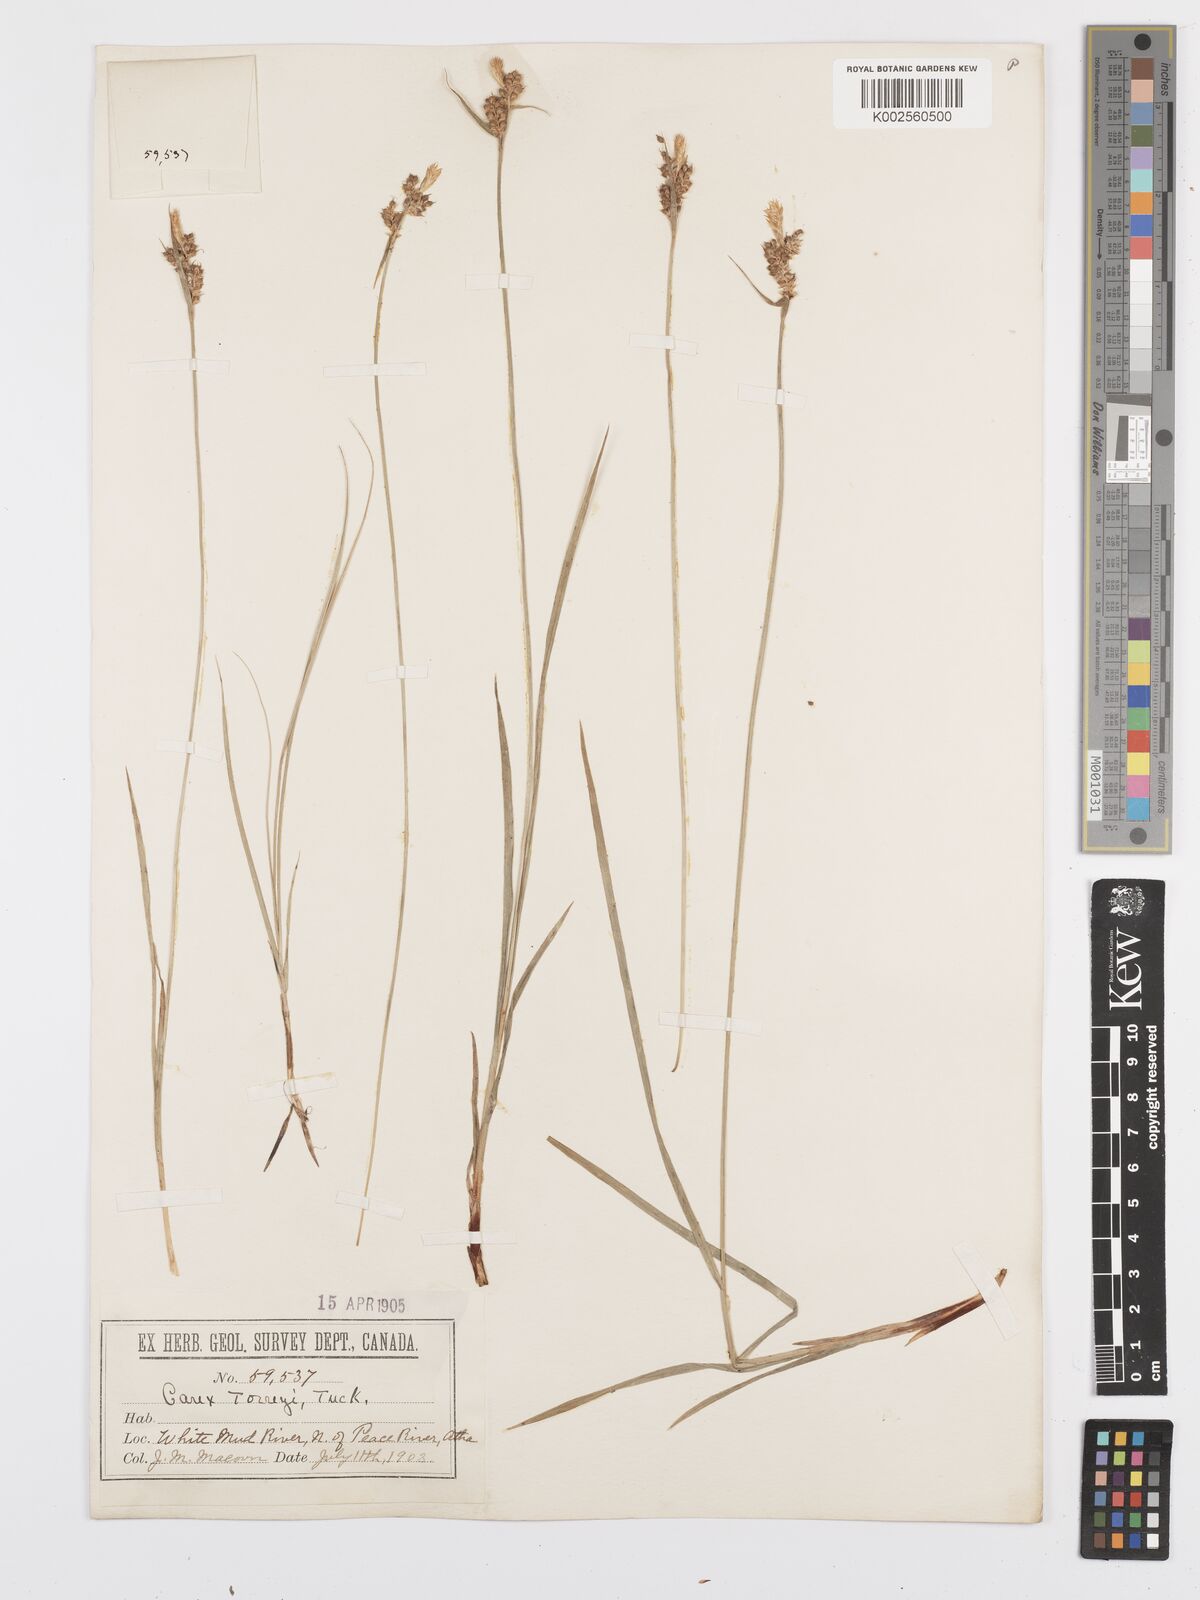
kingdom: Plantae
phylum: Tracheophyta
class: Liliopsida
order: Poales
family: Cyperaceae
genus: Carex
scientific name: Carex torreyi
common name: Torrey's sedge
